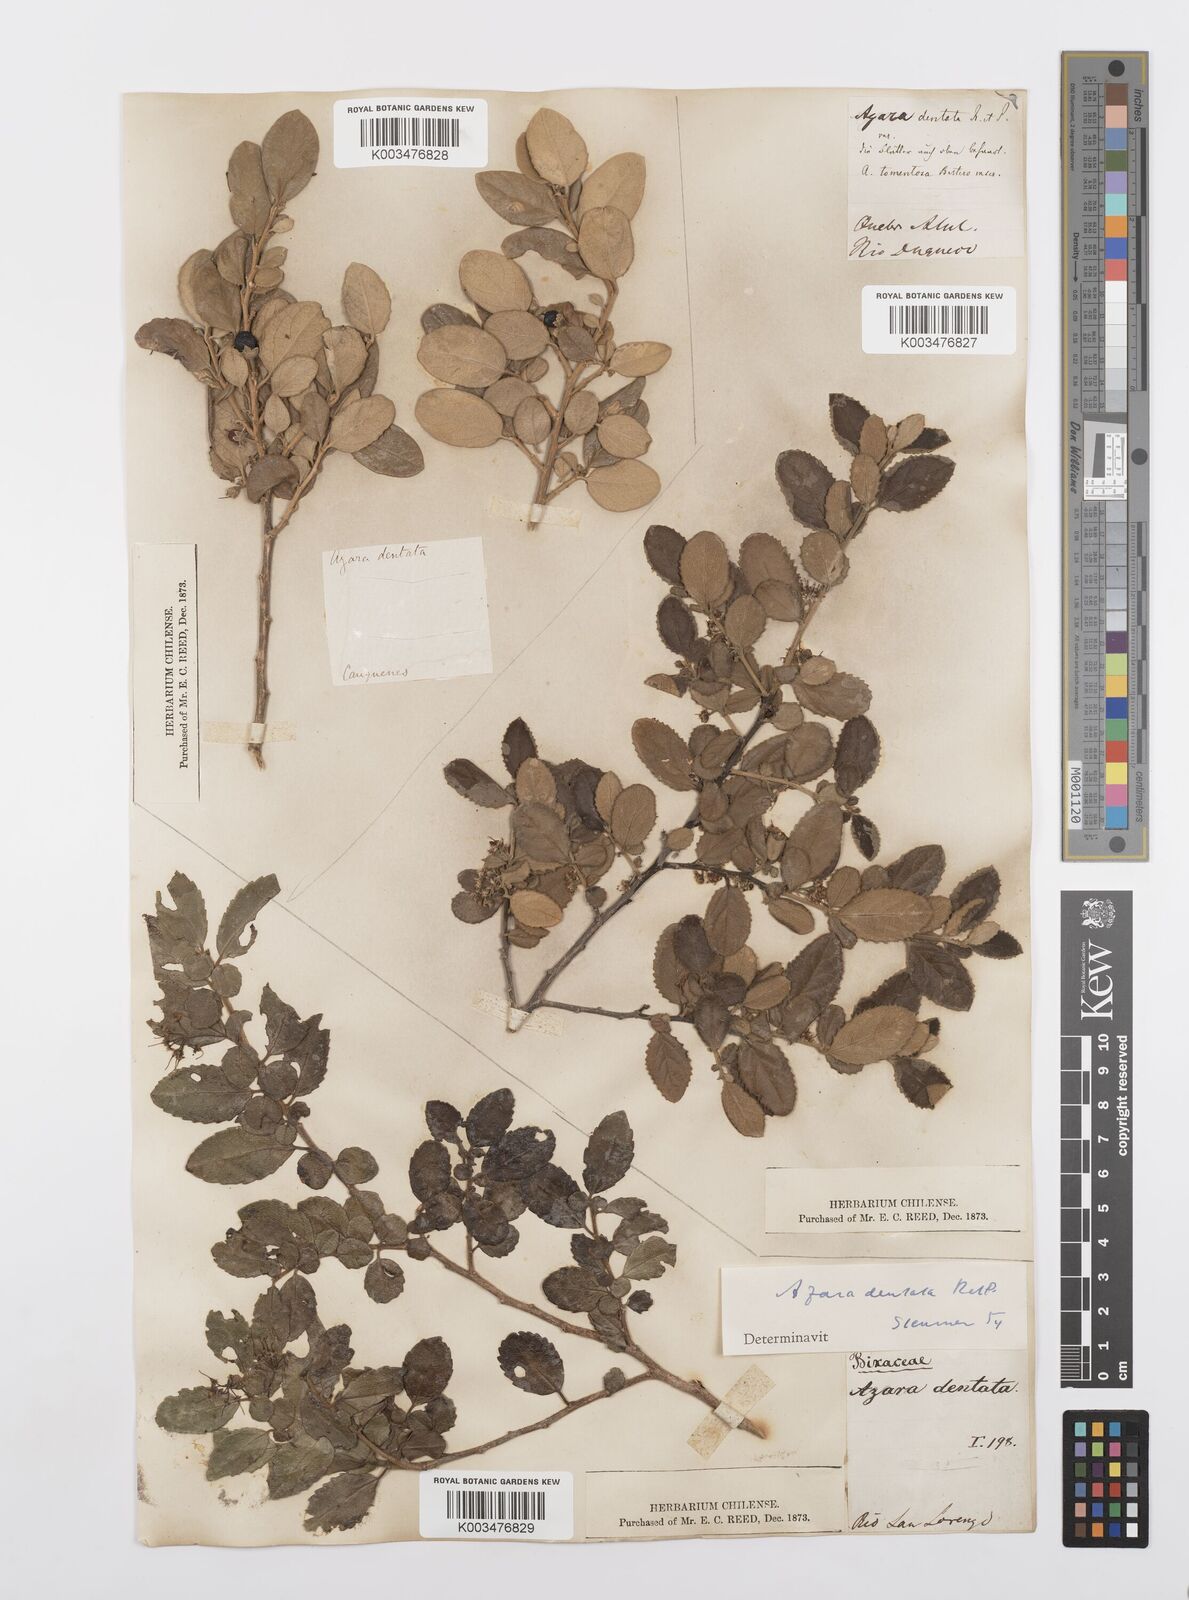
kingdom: Plantae
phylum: Tracheophyta
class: Magnoliopsida
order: Malpighiales
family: Salicaceae
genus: Azara
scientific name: Azara dentata
